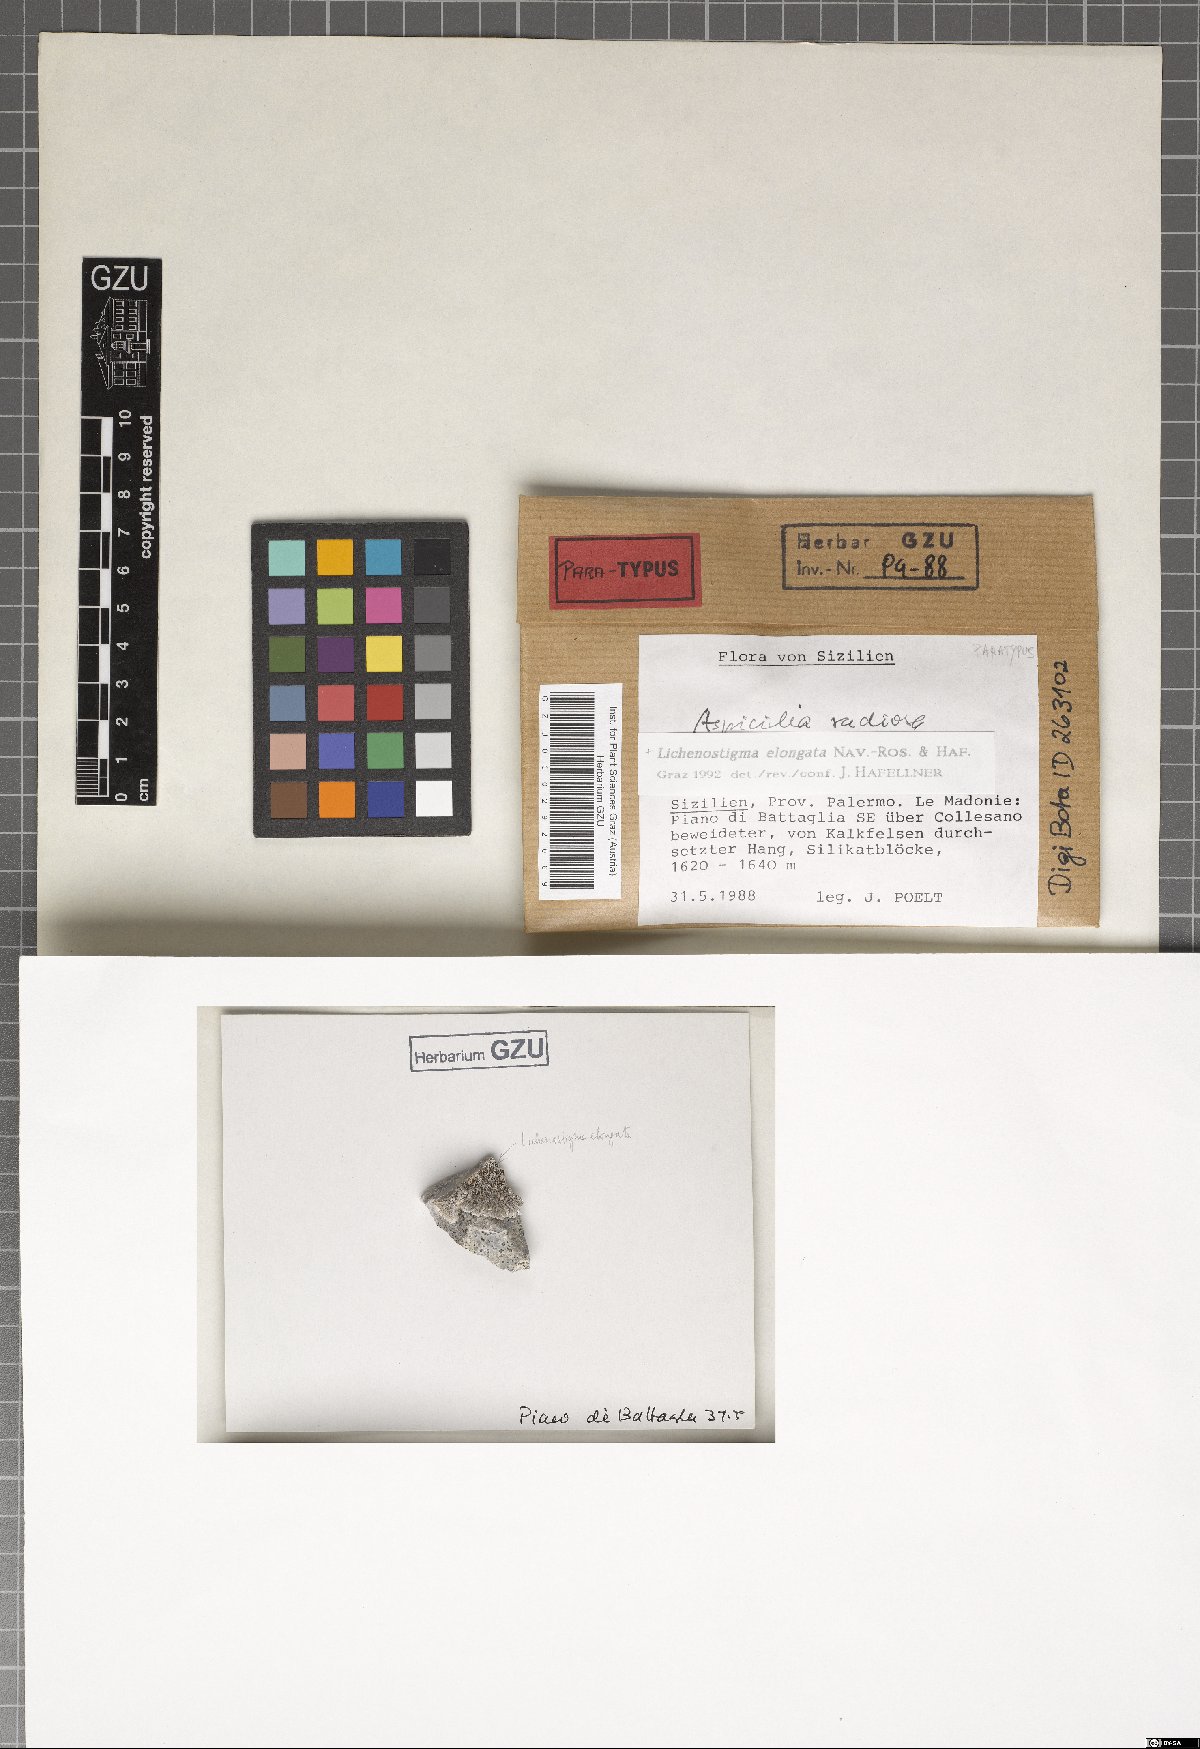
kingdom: Fungi
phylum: Ascomycota
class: Arthoniomycetes
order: Lichenostigmatales
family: Phaeococcomycetaceae
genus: Lichenostigma
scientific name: Lichenostigma elongatum
